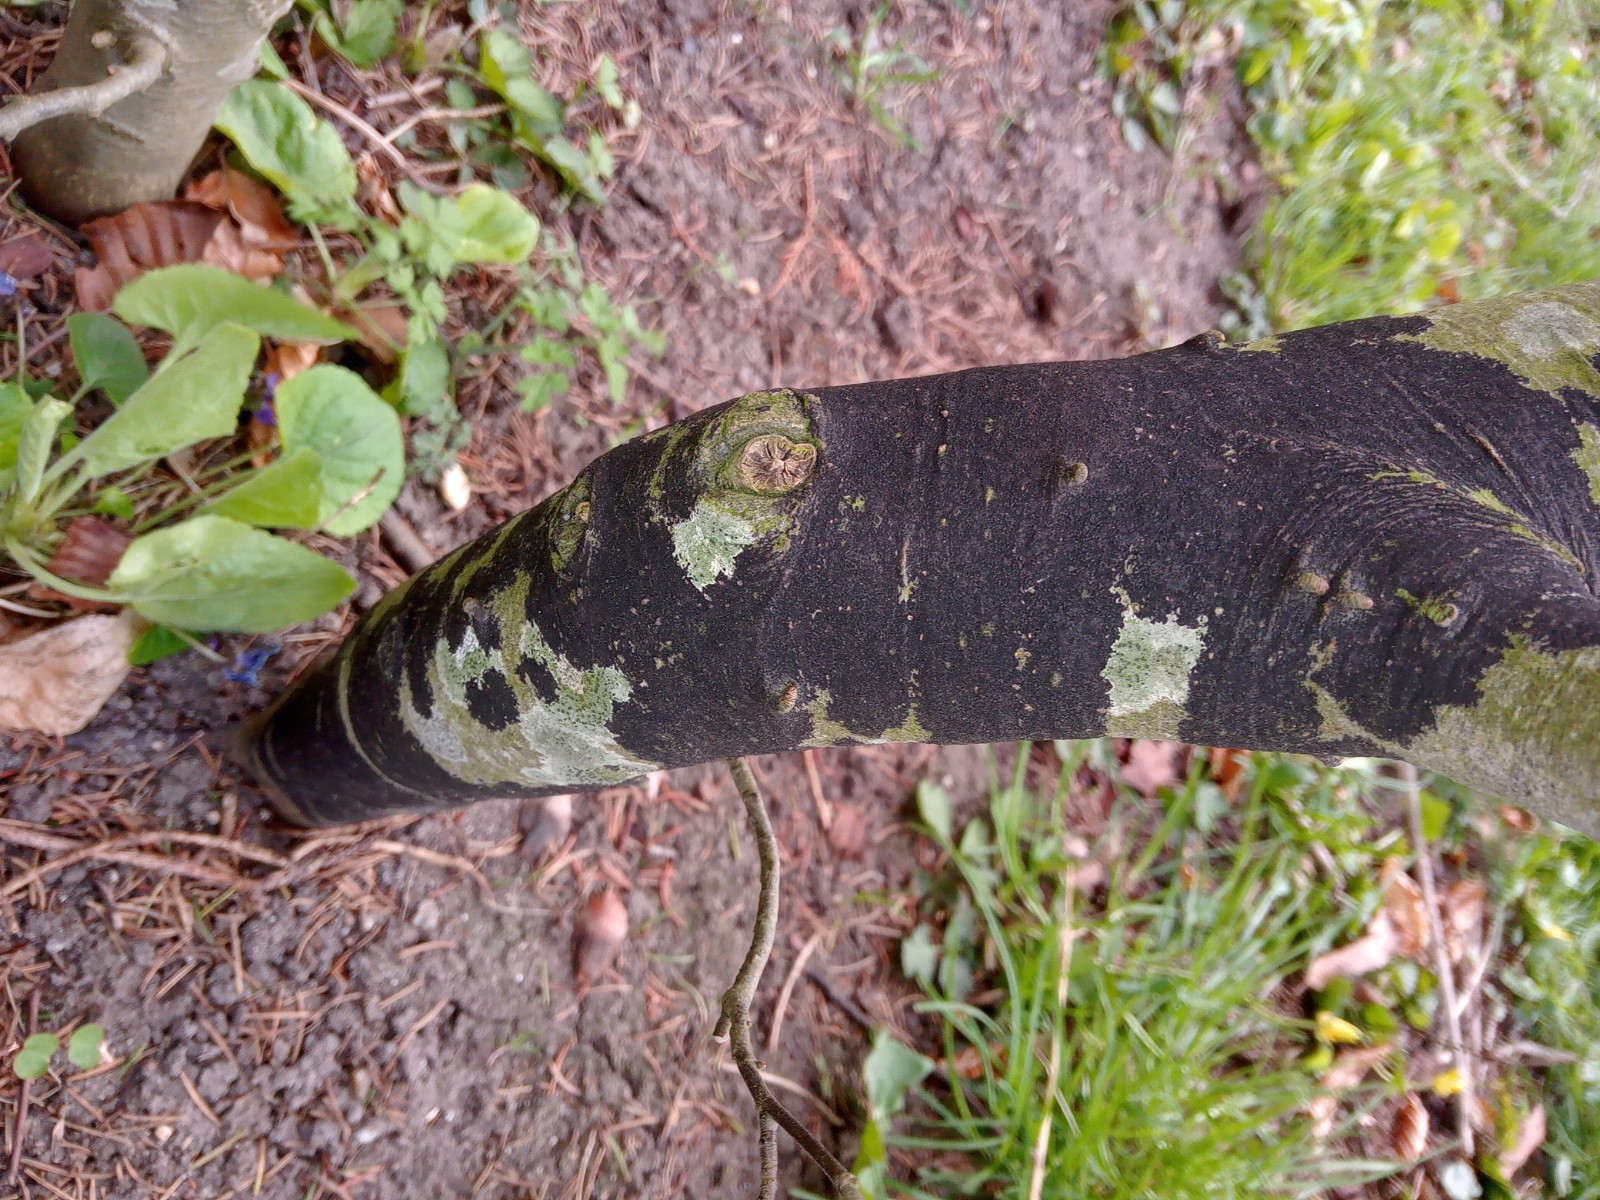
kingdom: Fungi
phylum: Ascomycota
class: Leotiomycetes
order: Rhytismatales
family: Ascodichaenaceae
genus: Ascodichaena
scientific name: Ascodichaena rugosa
